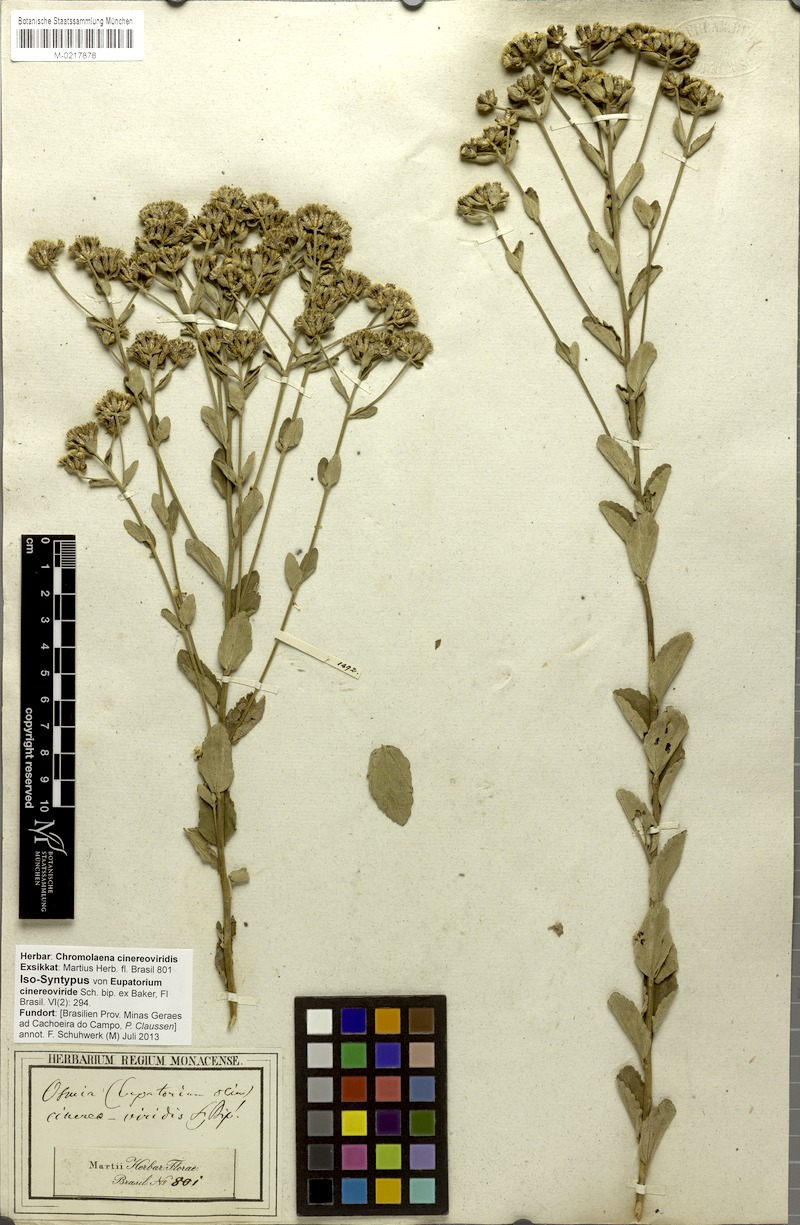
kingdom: Plantae
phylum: Tracheophyta
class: Magnoliopsida
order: Asterales
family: Asteraceae
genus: Chromolaena
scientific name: Chromolaena cinereoviridis
